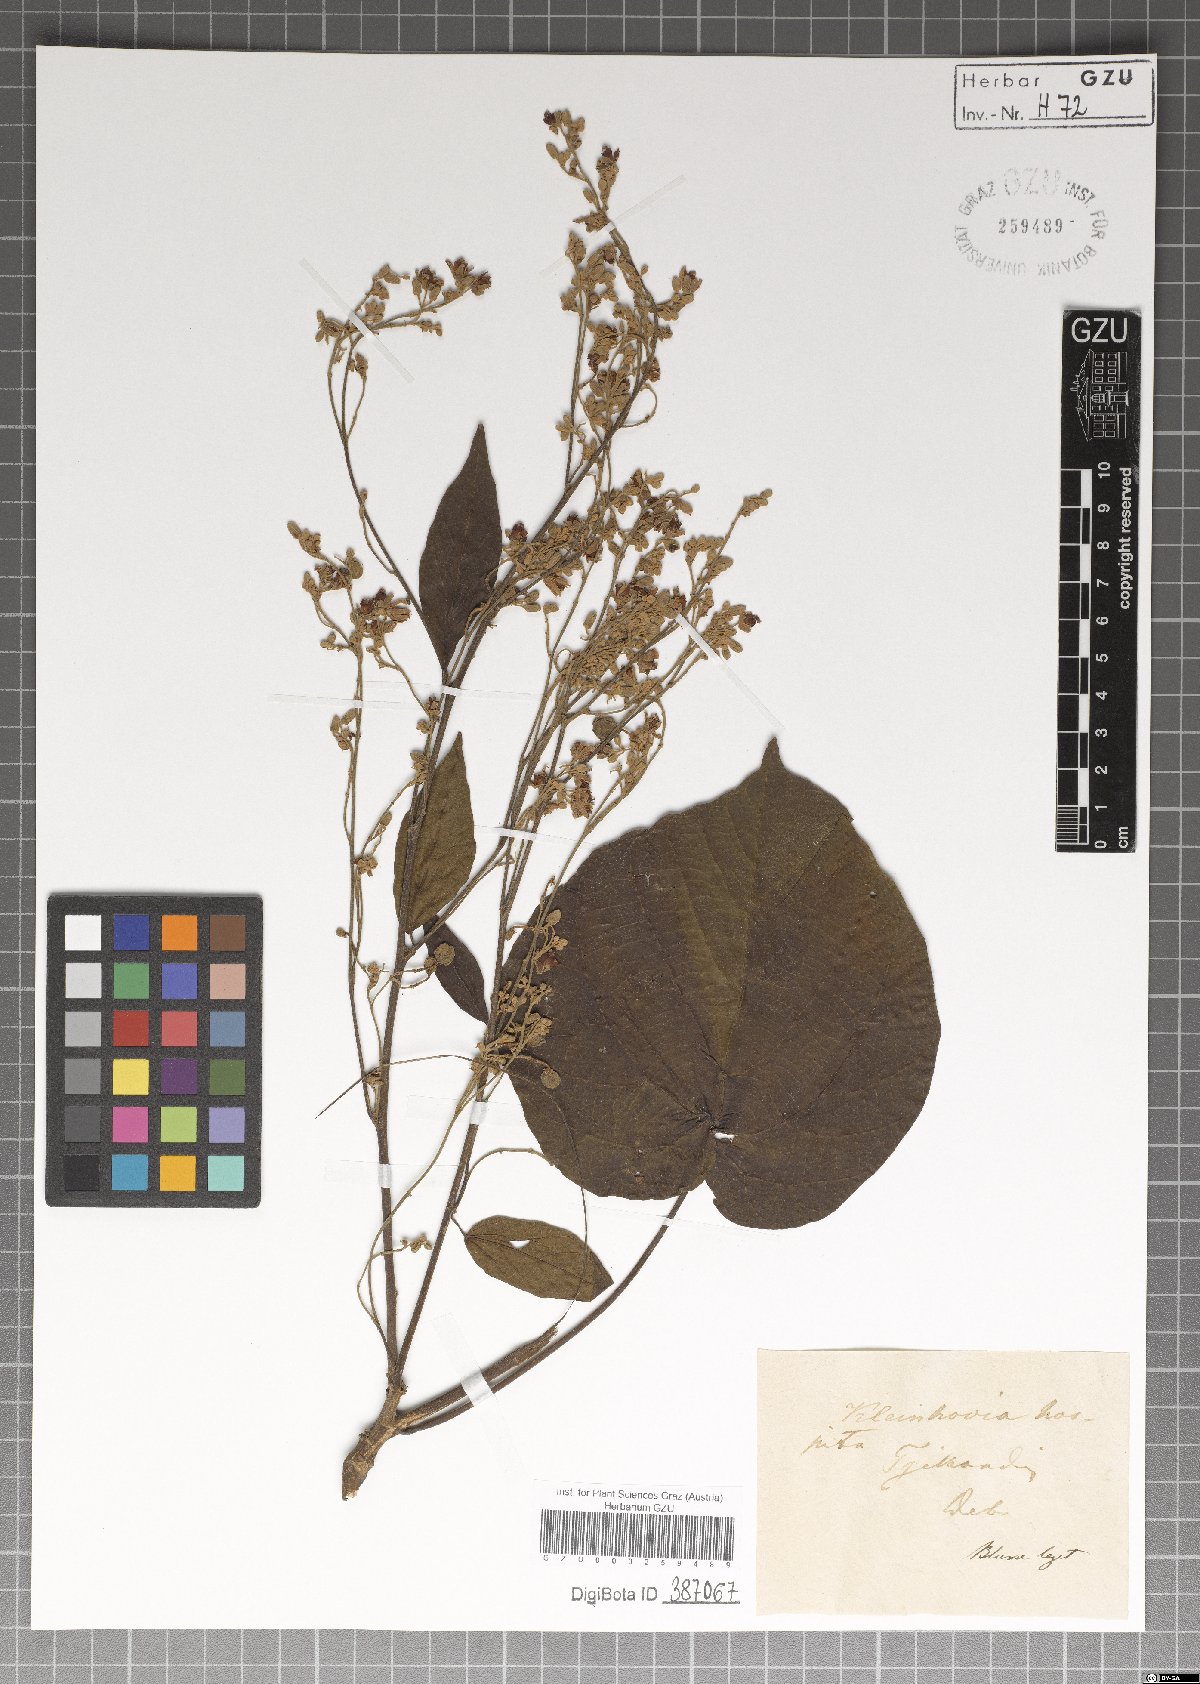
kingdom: Plantae
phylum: Tracheophyta
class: Magnoliopsida
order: Malvales
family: Malvaceae
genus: Kleinhovia
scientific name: Kleinhovia hospita
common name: Guest-tree
